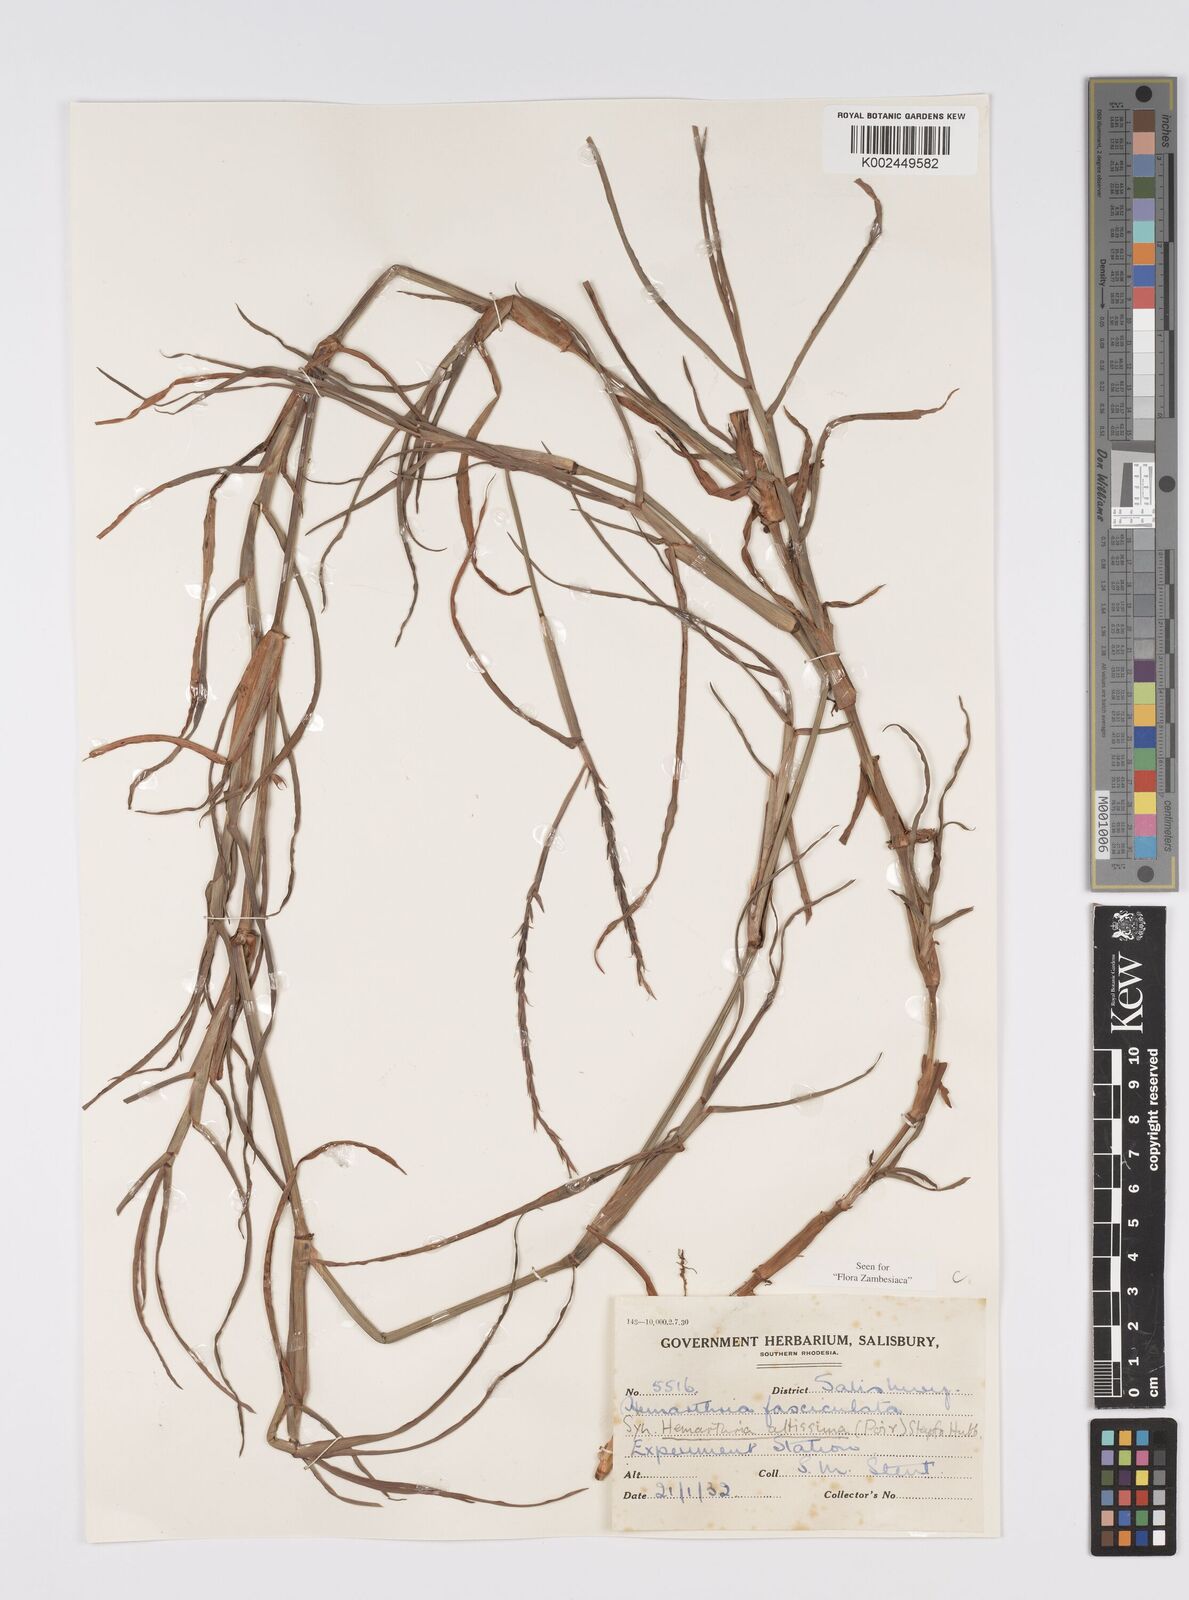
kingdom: Plantae
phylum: Tracheophyta
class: Liliopsida
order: Poales
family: Poaceae
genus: Hemarthria
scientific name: Hemarthria altissima
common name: African jointgrass
